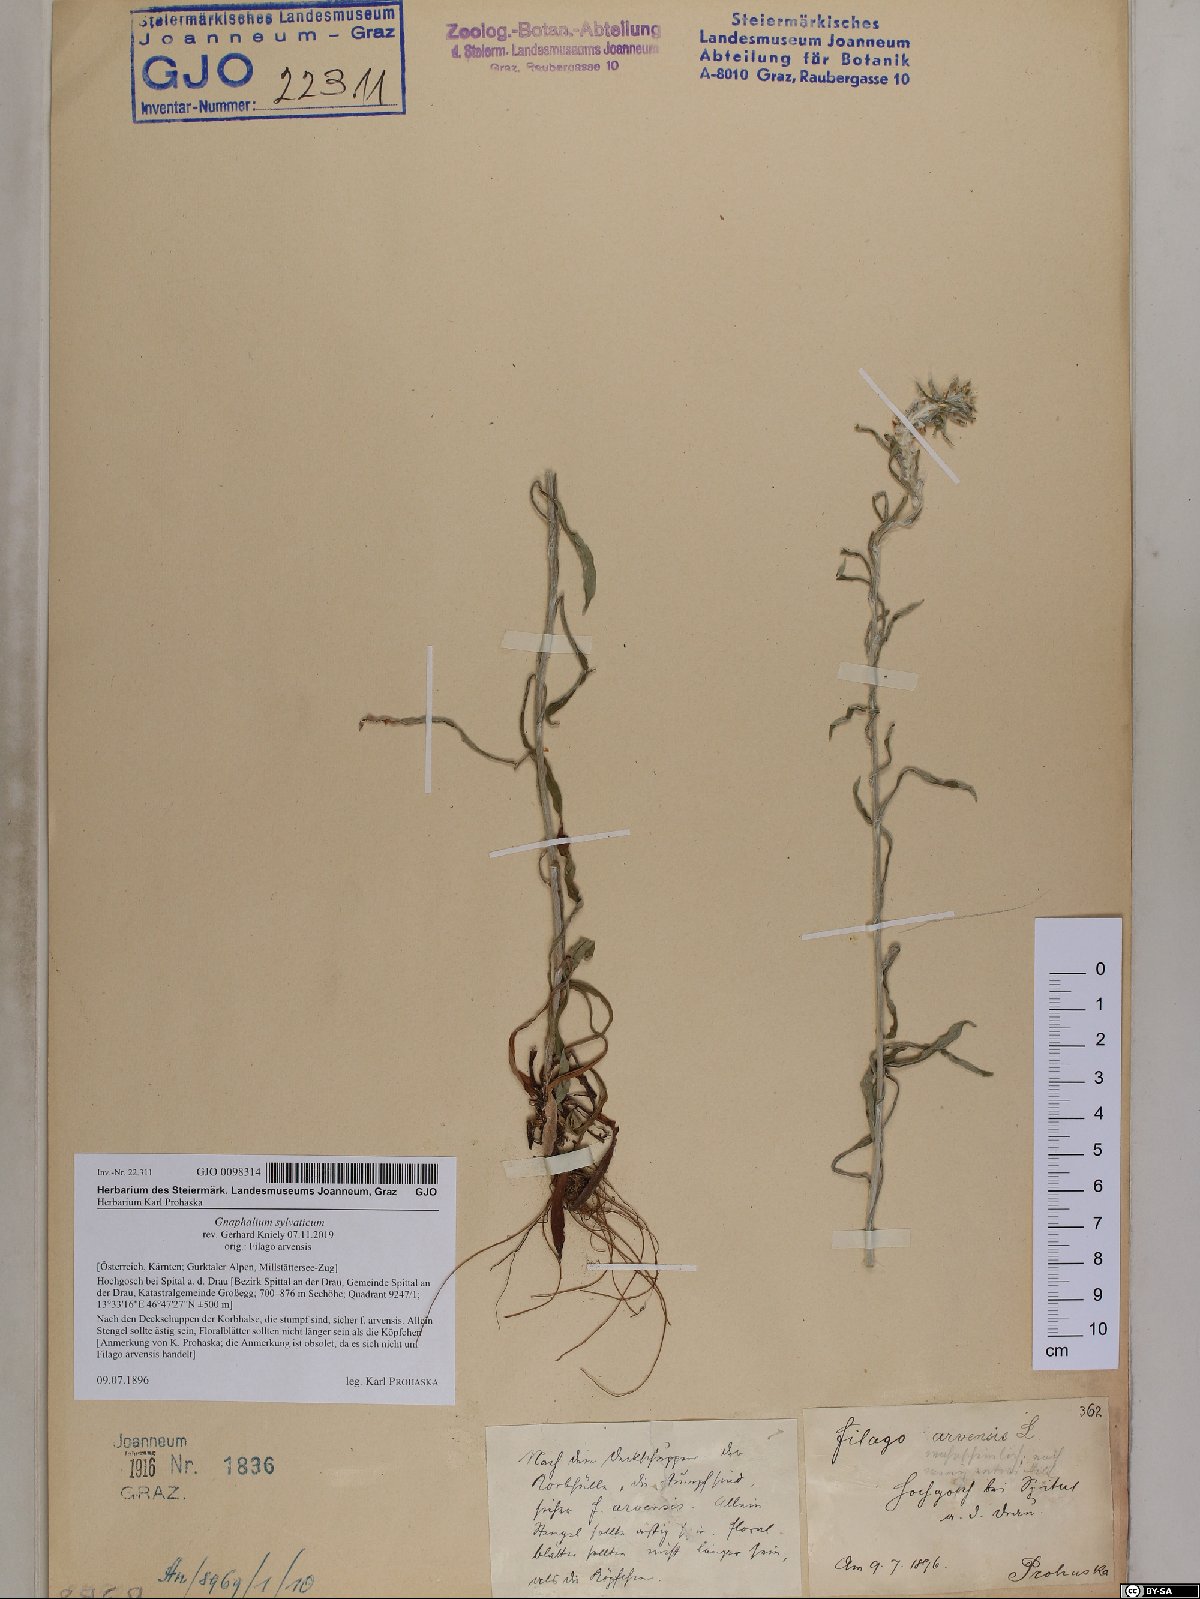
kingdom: Plantae
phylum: Tracheophyta
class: Magnoliopsida
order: Asterales
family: Asteraceae
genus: Omalotheca
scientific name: Omalotheca sylvatica
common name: Heath cudweed
